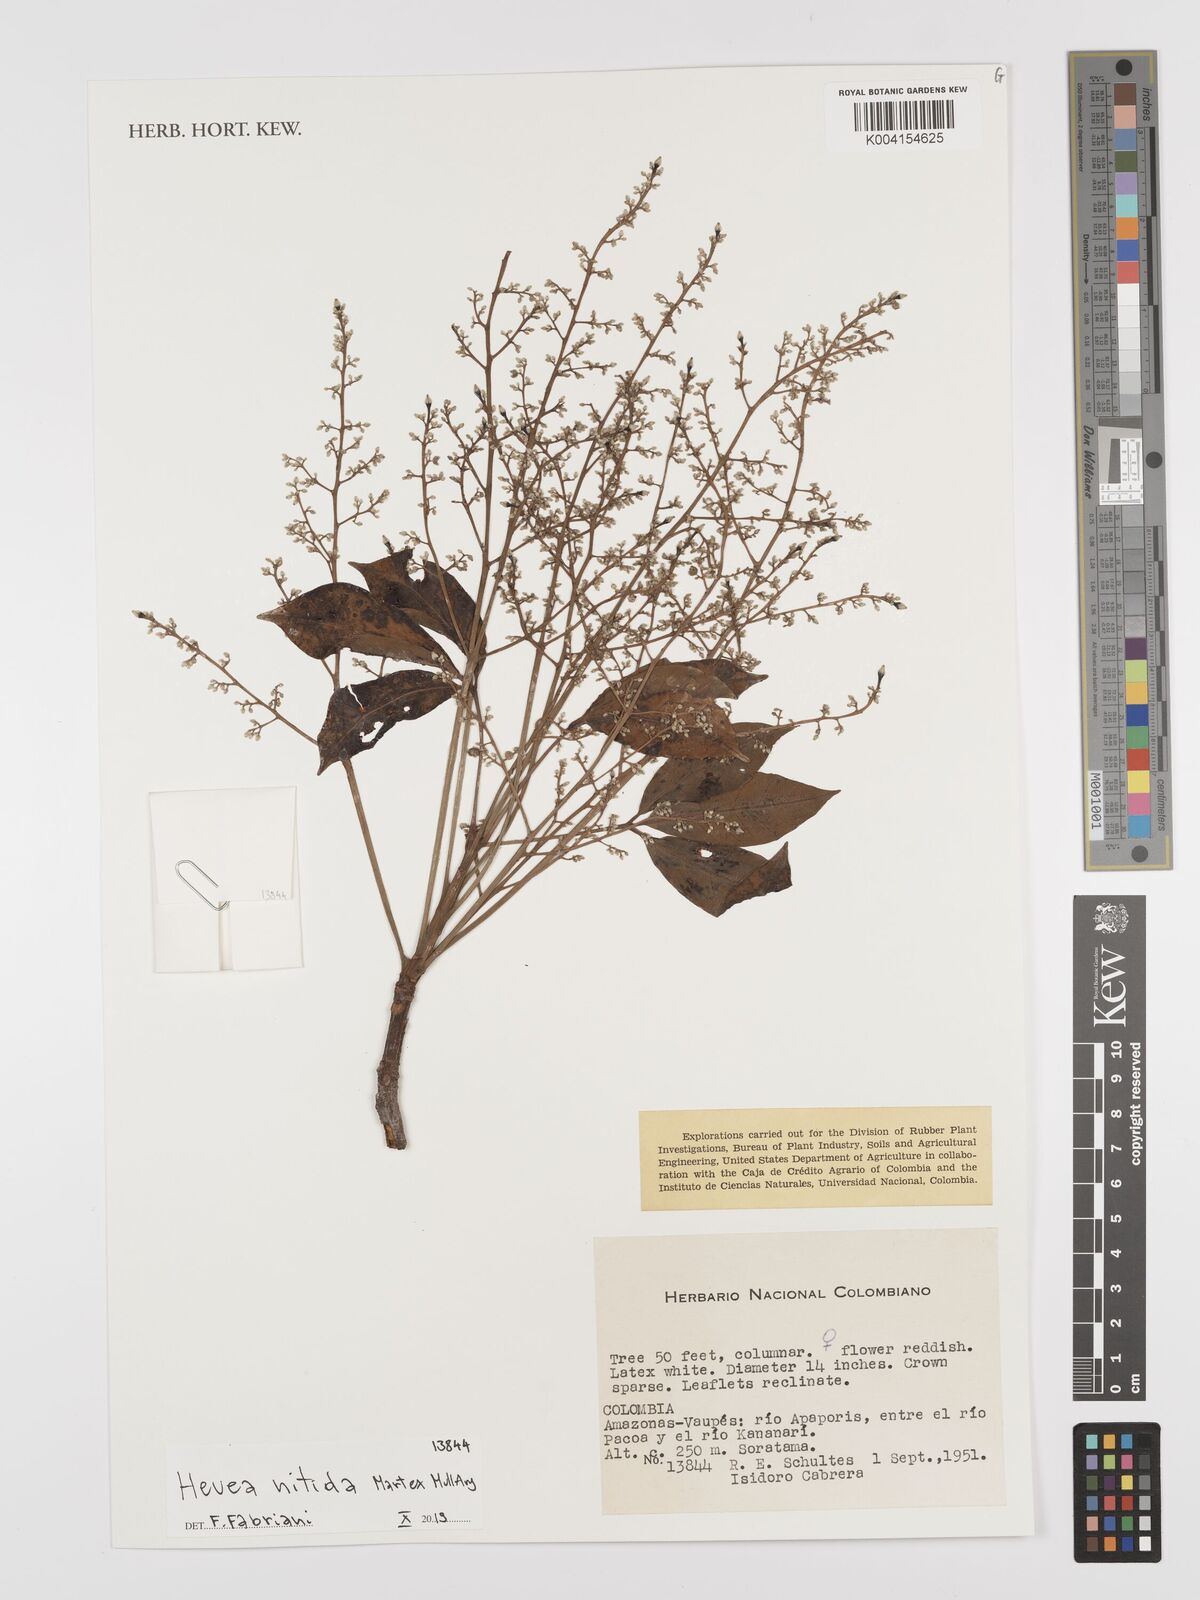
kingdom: Plantae
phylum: Tracheophyta
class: Magnoliopsida
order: Malpighiales
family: Euphorbiaceae
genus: Hevea
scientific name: Hevea nitida
